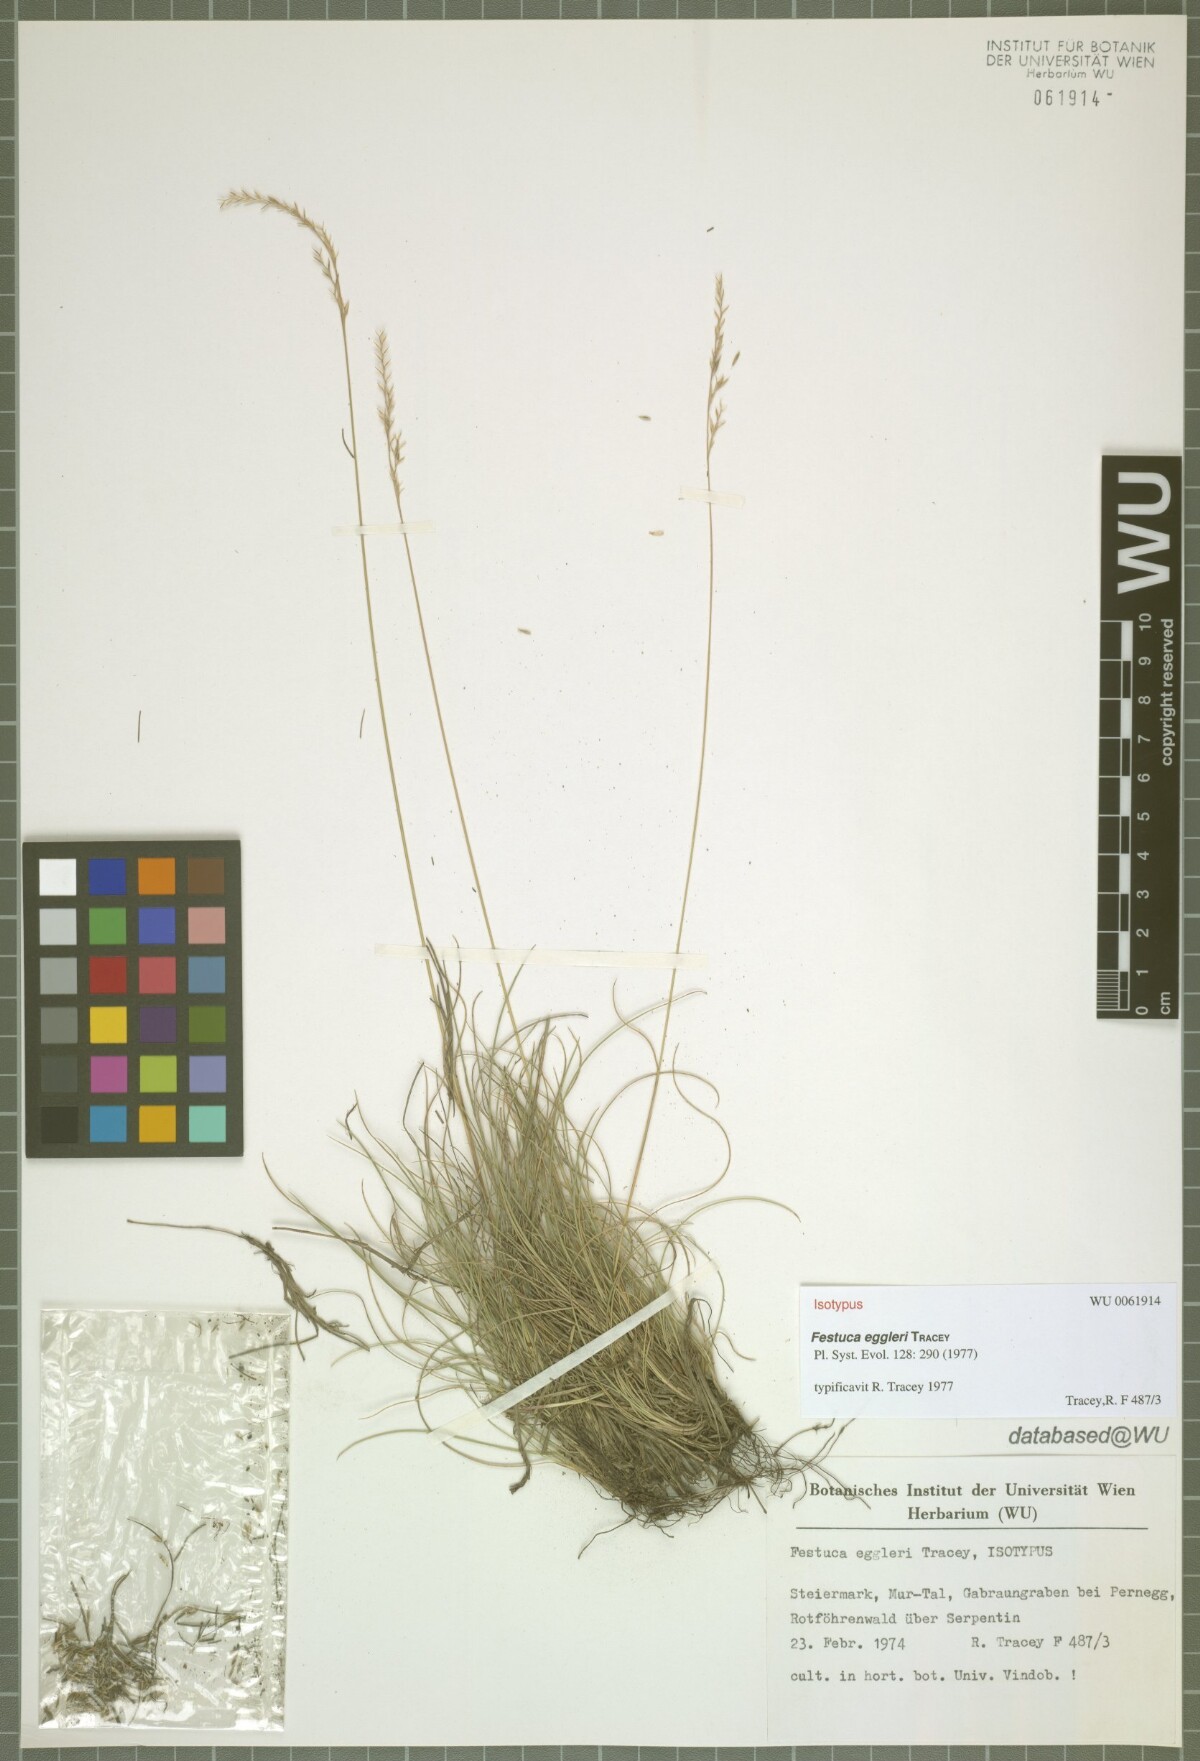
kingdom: Plantae
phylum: Tracheophyta
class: Liliopsida
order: Poales
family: Poaceae
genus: Festuca
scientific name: Festuca eggleri
